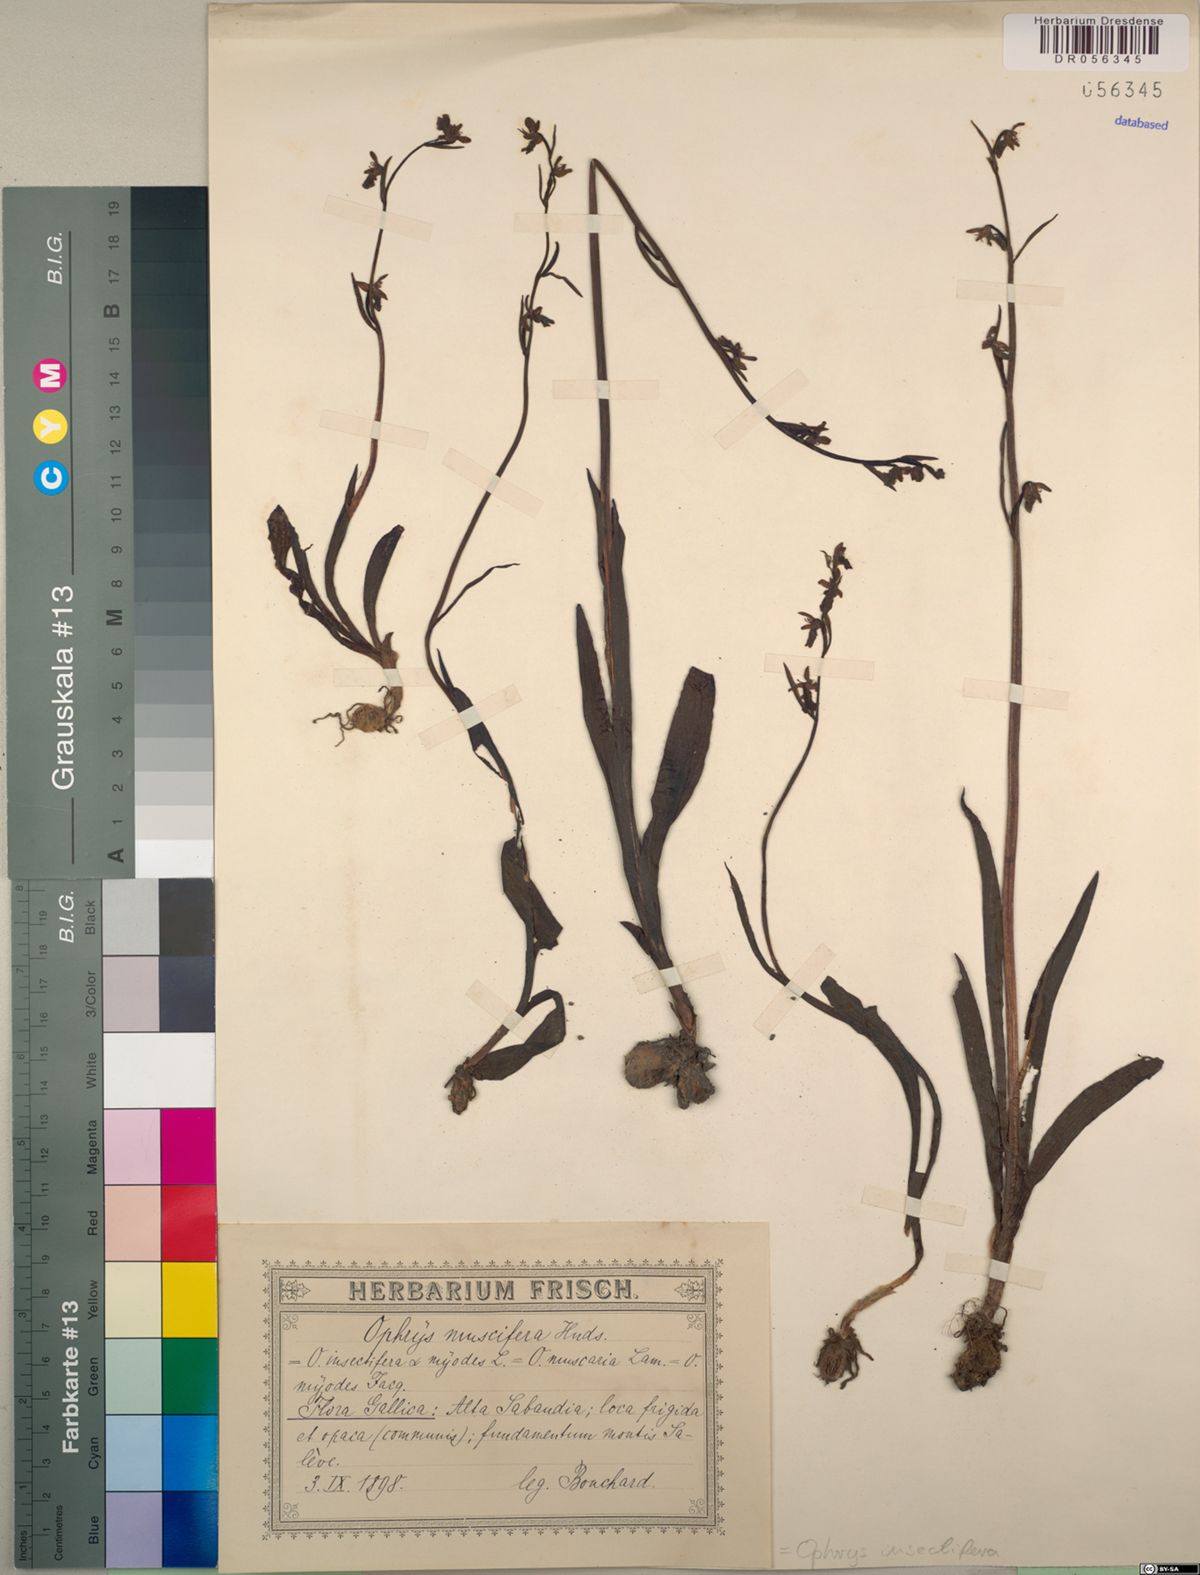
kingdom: Plantae
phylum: Tracheophyta
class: Liliopsida
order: Asparagales
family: Orchidaceae
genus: Ophrys
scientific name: Ophrys insectifera
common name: Fly orchid
